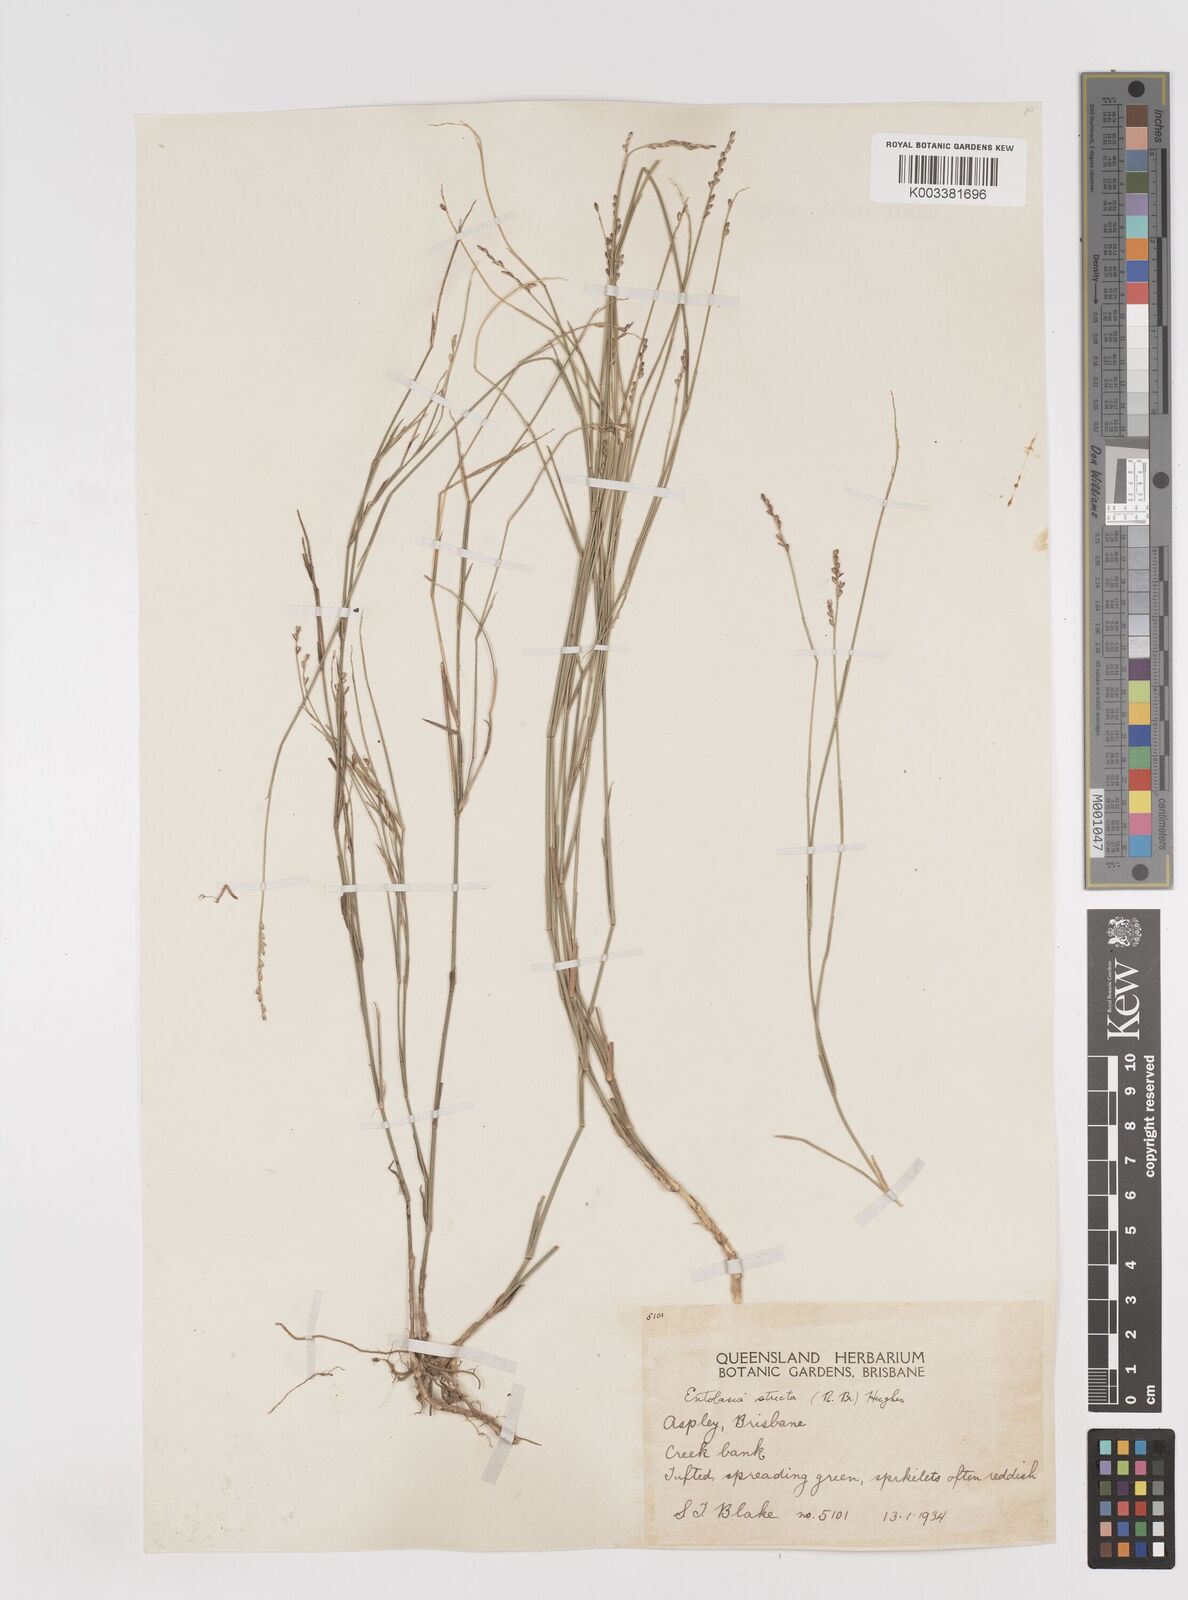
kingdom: Plantae
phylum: Tracheophyta
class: Liliopsida
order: Poales
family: Poaceae
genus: Entolasia
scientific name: Entolasia stricta
